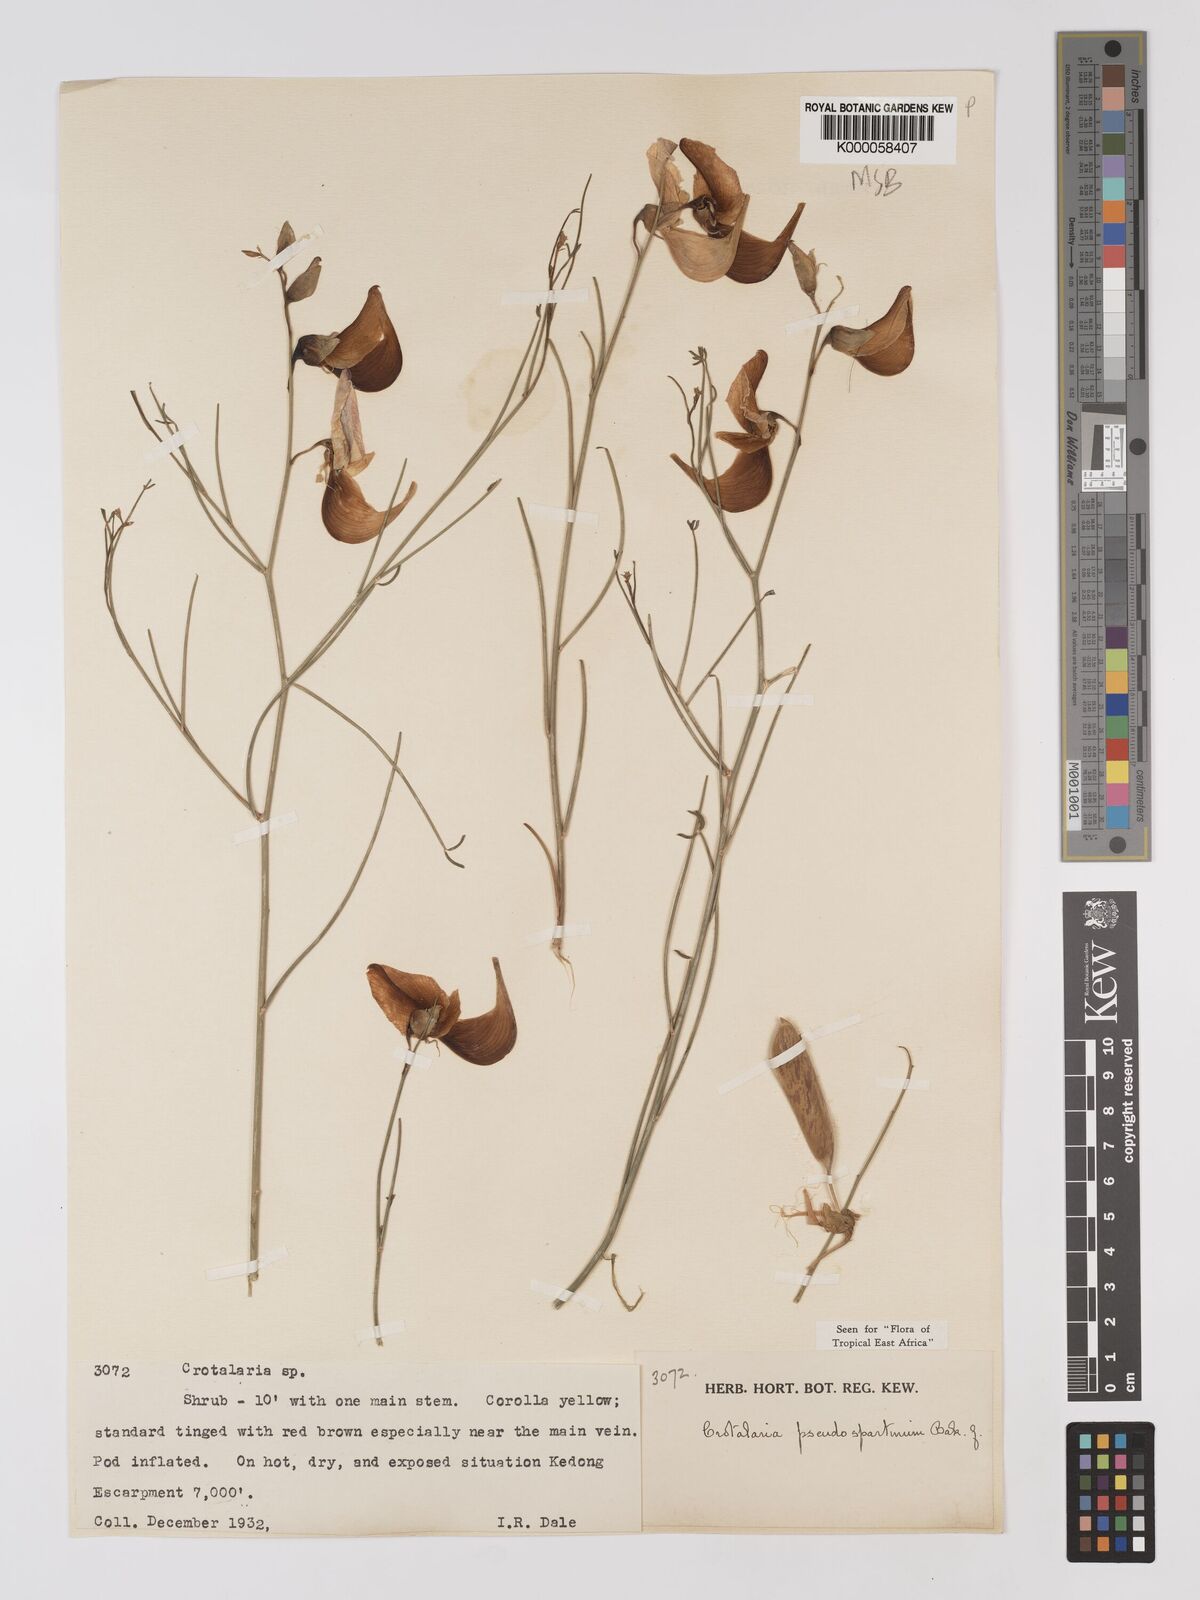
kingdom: Plantae
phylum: Tracheophyta
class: Magnoliopsida
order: Fabales
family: Fabaceae
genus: Crotalaria
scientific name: Crotalaria pseudospartium
